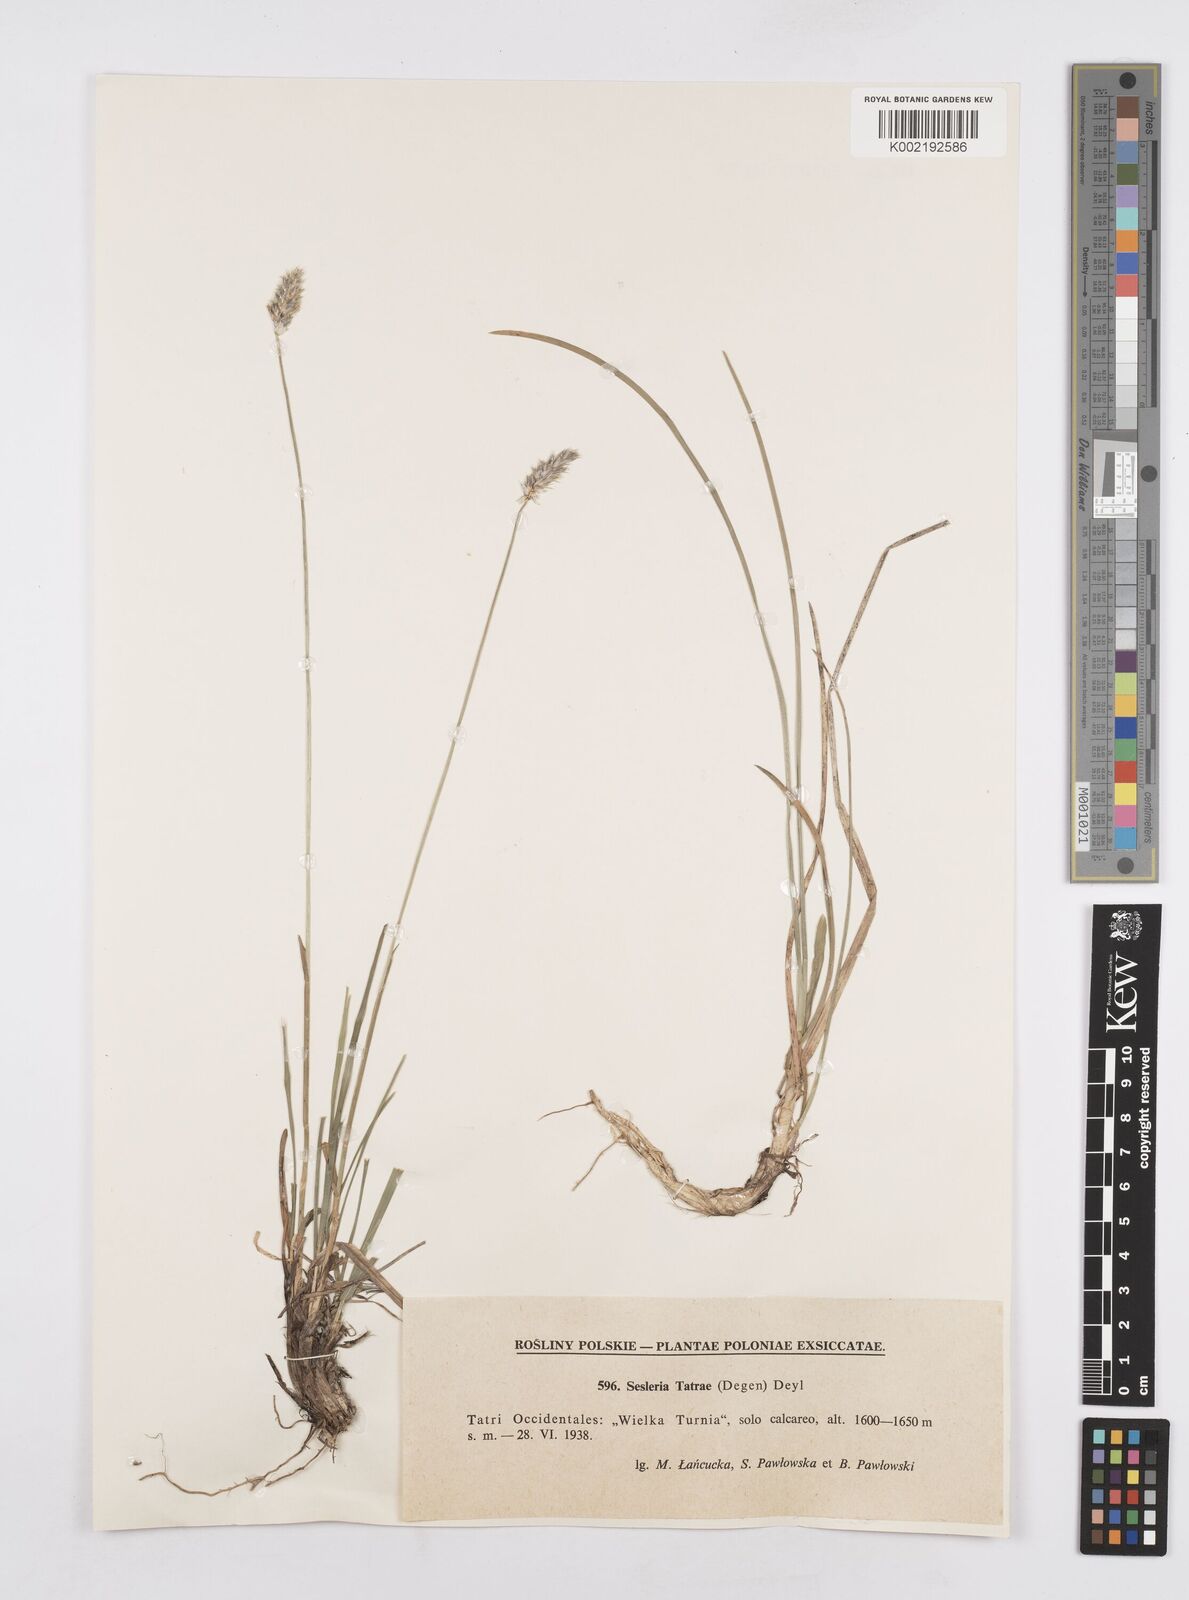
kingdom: Plantae
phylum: Tracheophyta
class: Liliopsida
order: Poales
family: Poaceae
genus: Sesleria
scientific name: Sesleria tatrae
